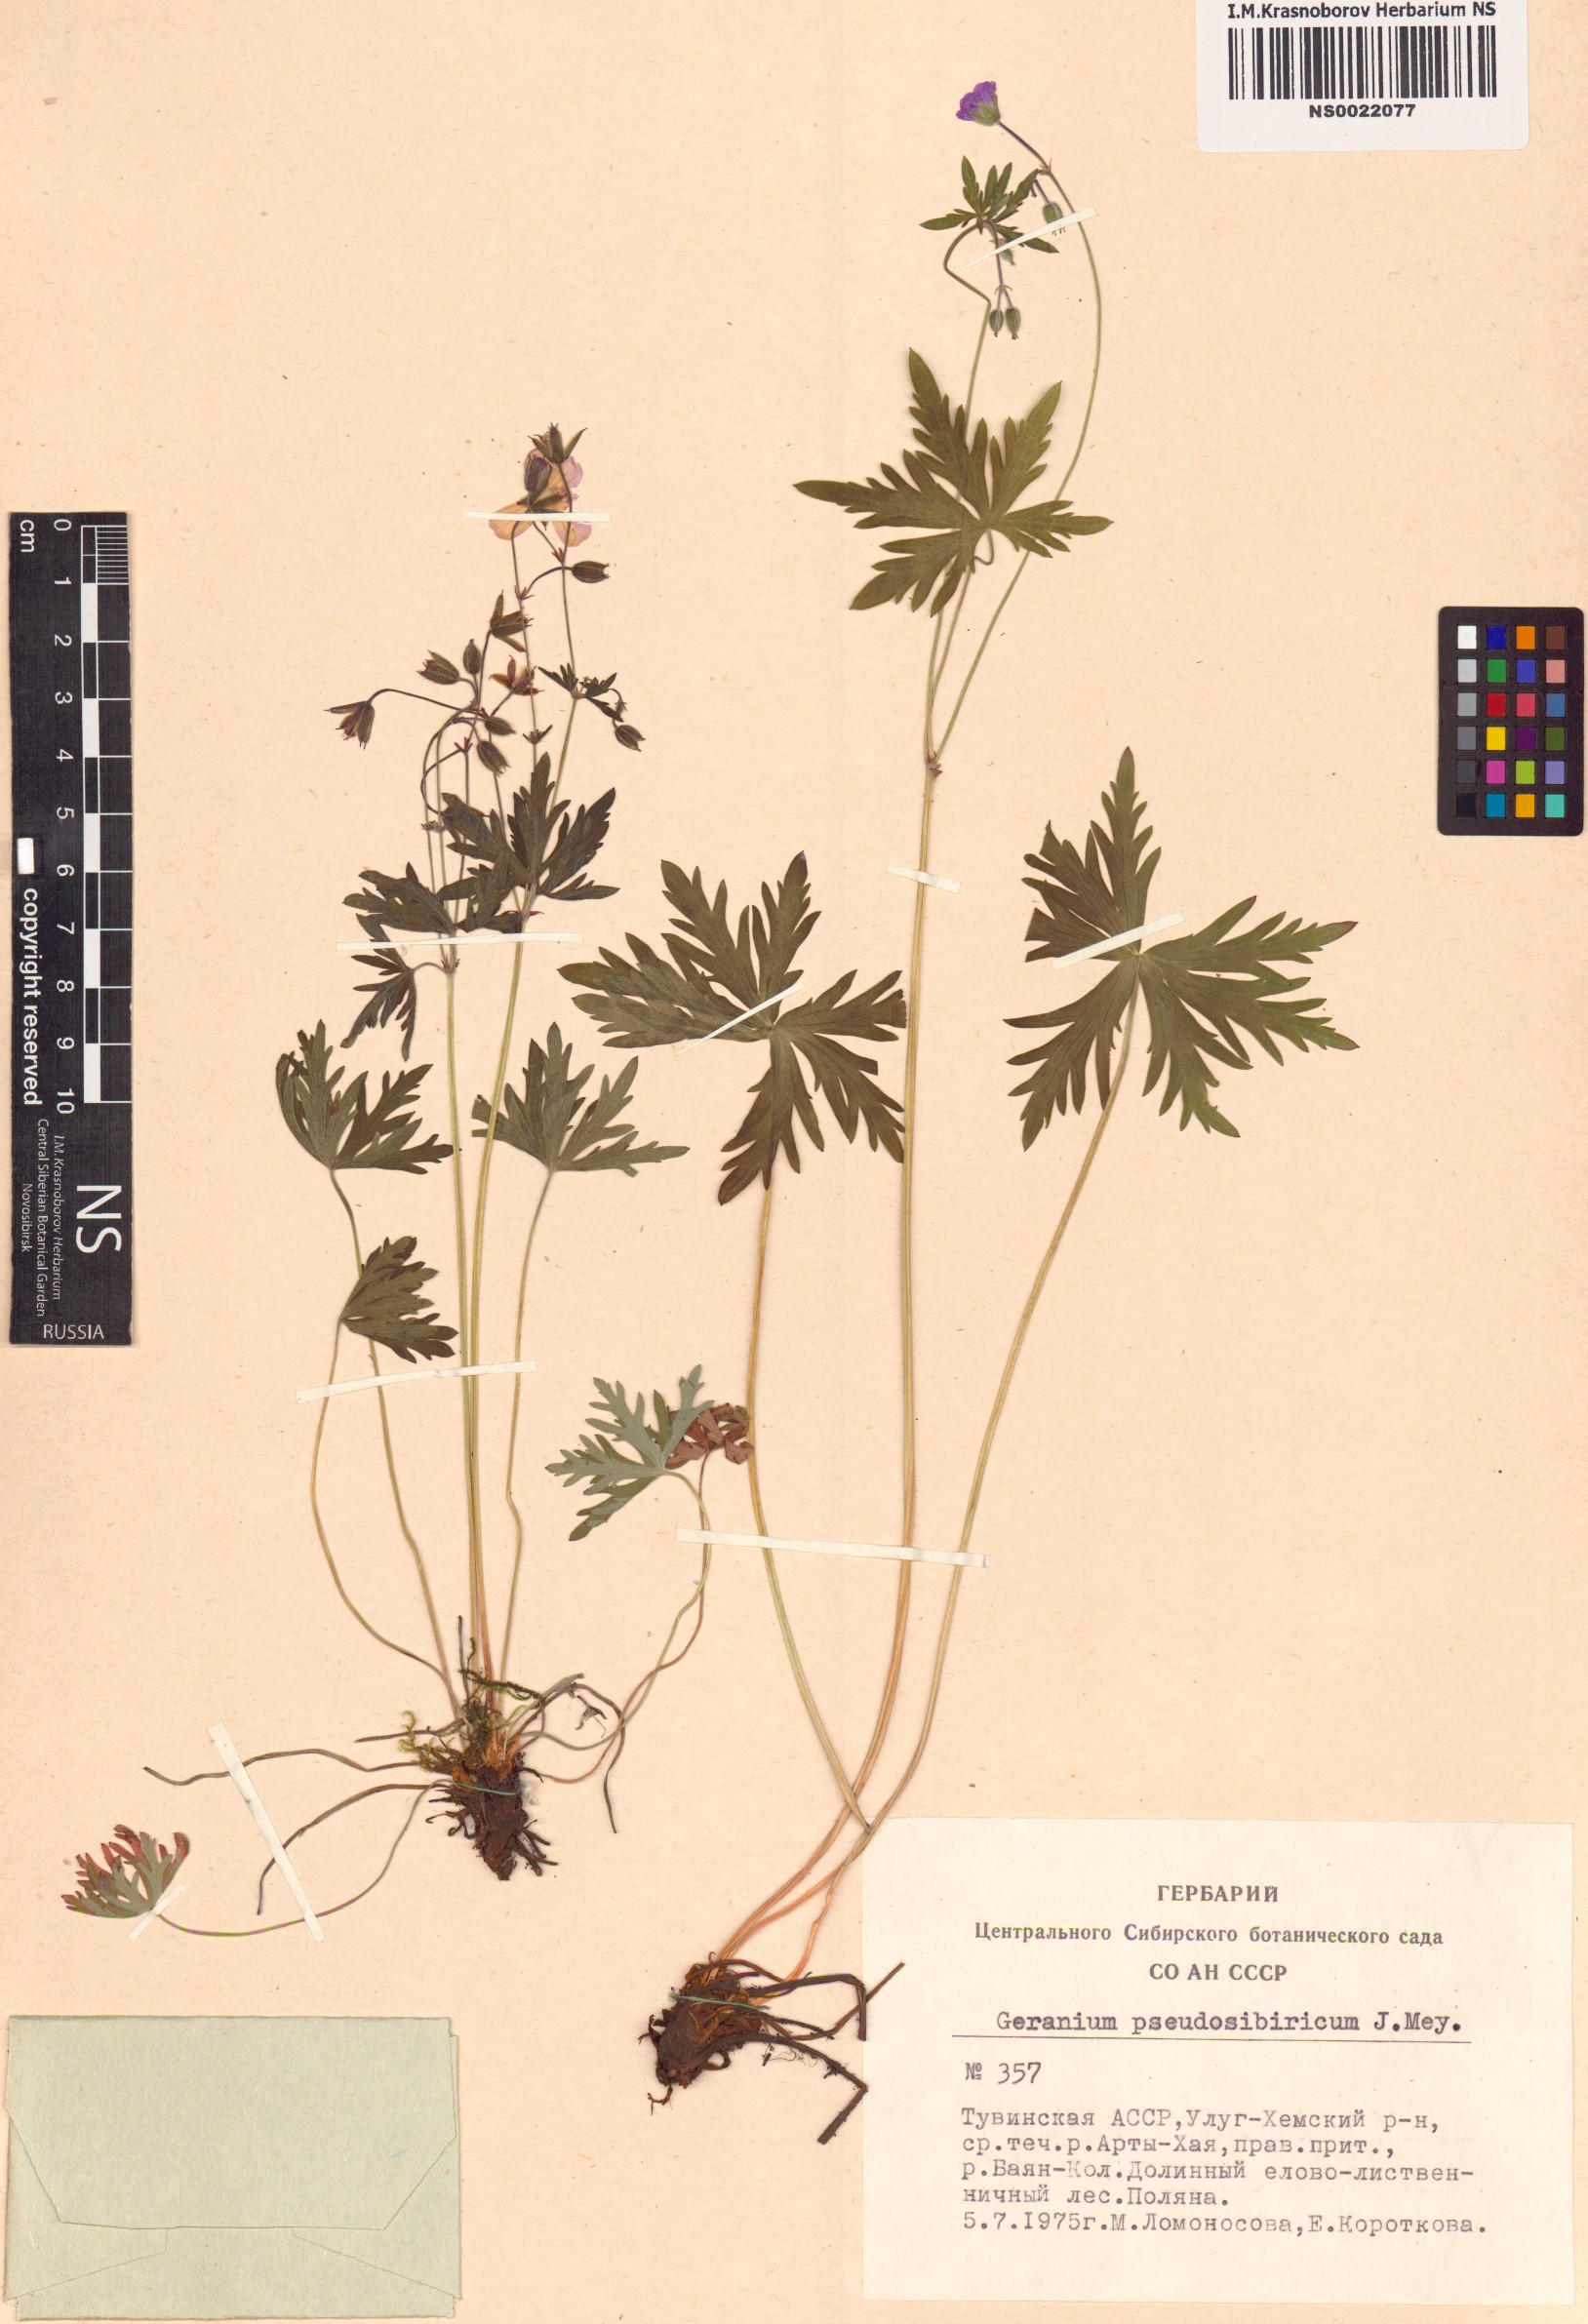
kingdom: Plantae
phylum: Tracheophyta
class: Magnoliopsida
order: Geraniales
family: Geraniaceae
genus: Geranium
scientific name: Geranium pseudosibiricum
